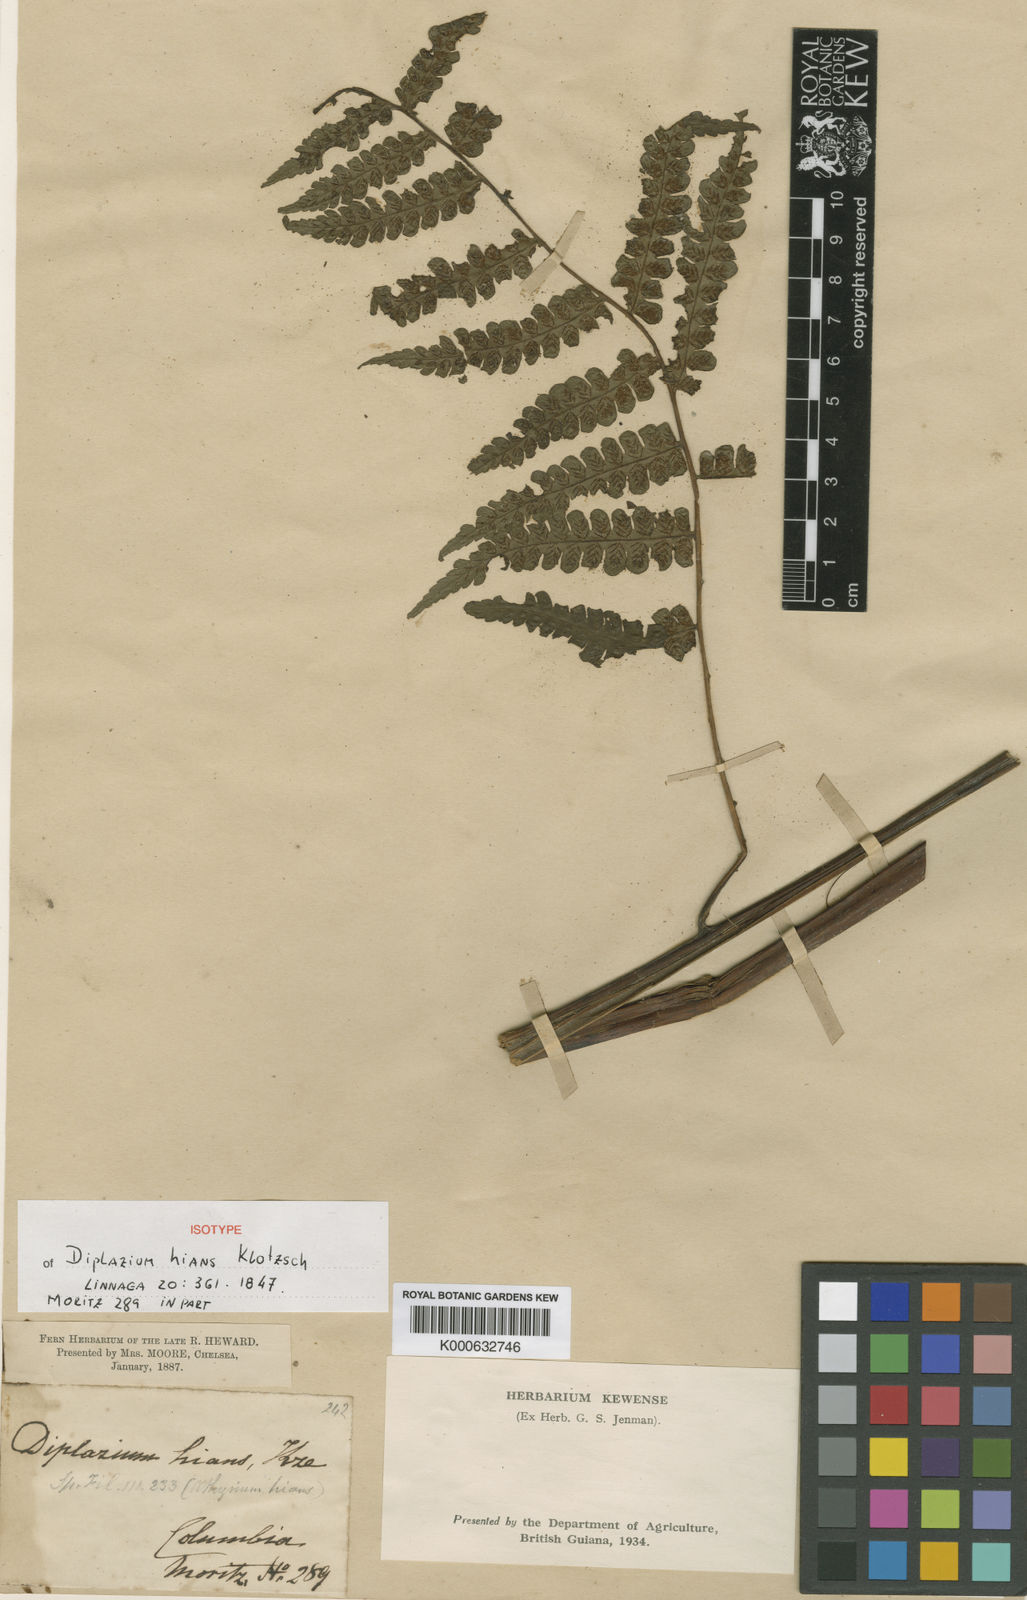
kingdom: Plantae
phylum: Tracheophyta
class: Polypodiopsida
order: Polypodiales
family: Athyriaceae
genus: Diplazium
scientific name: Diplazium
